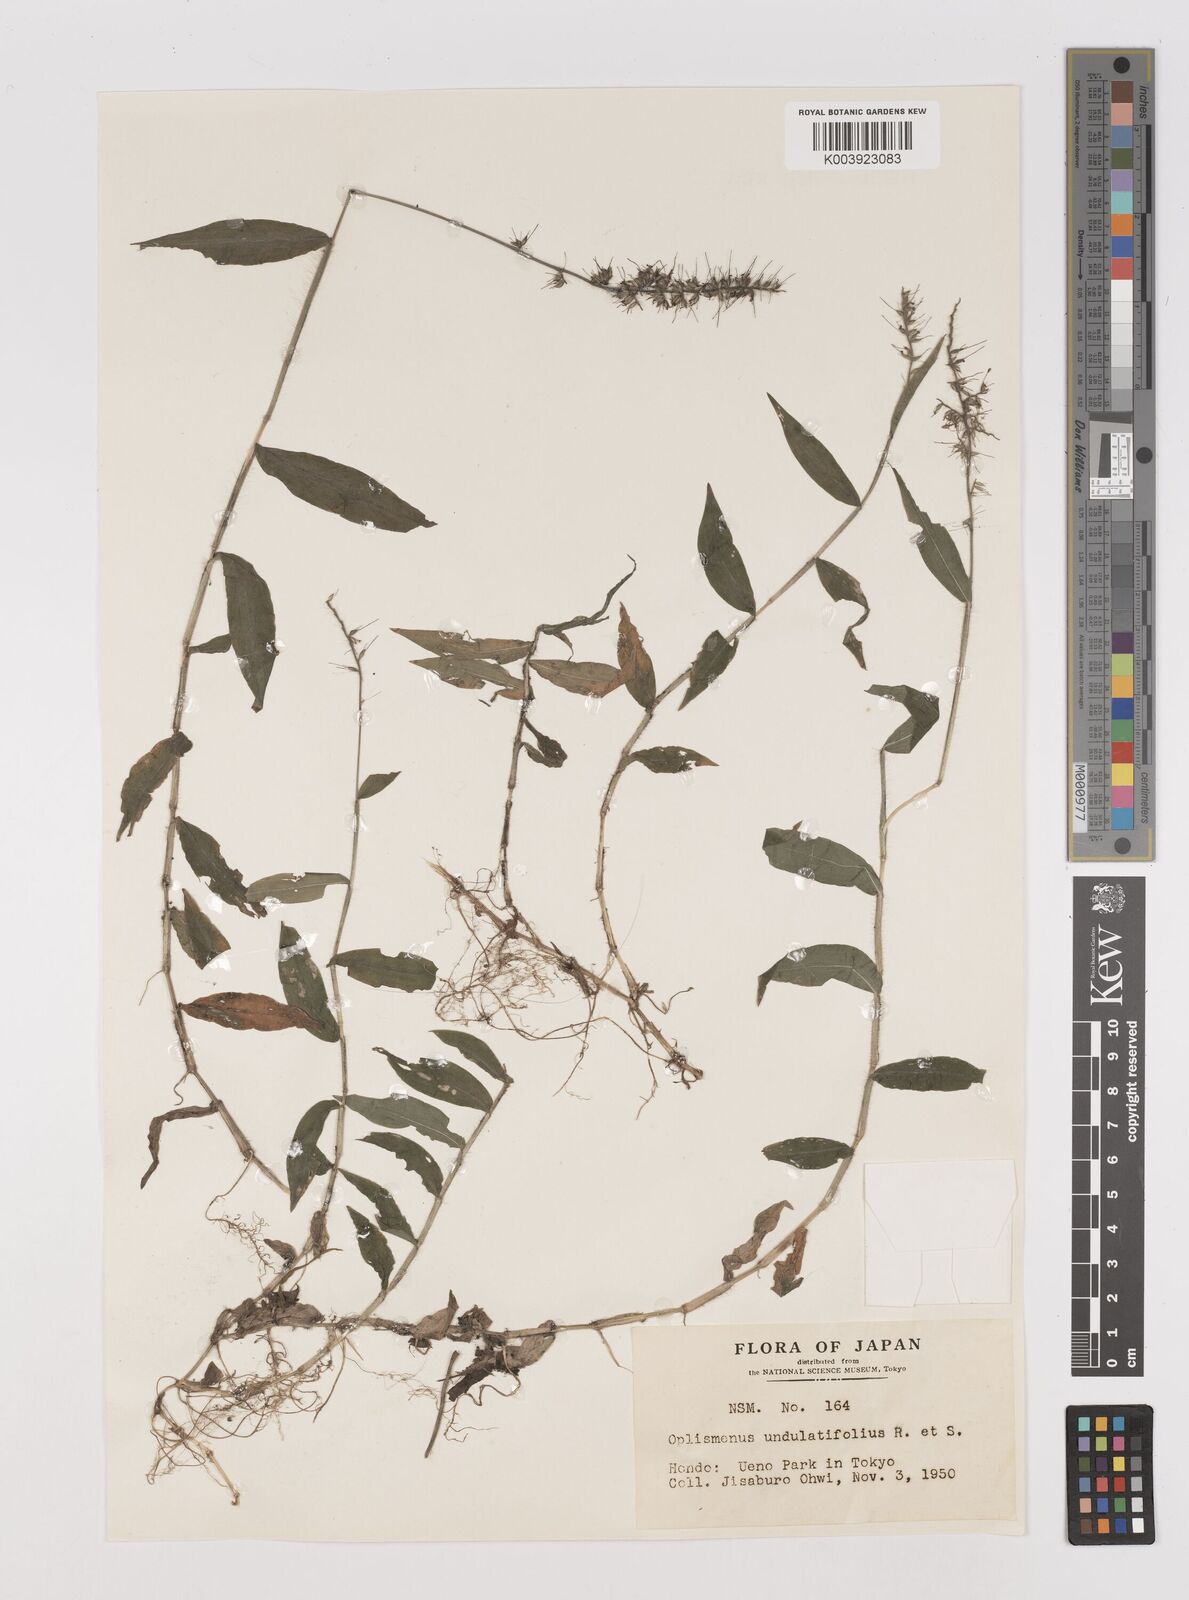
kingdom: Plantae
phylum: Tracheophyta
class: Liliopsida
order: Poales
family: Poaceae
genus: Oplismenus
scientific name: Oplismenus undulatifolius
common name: Wavyleaf basketgrass
